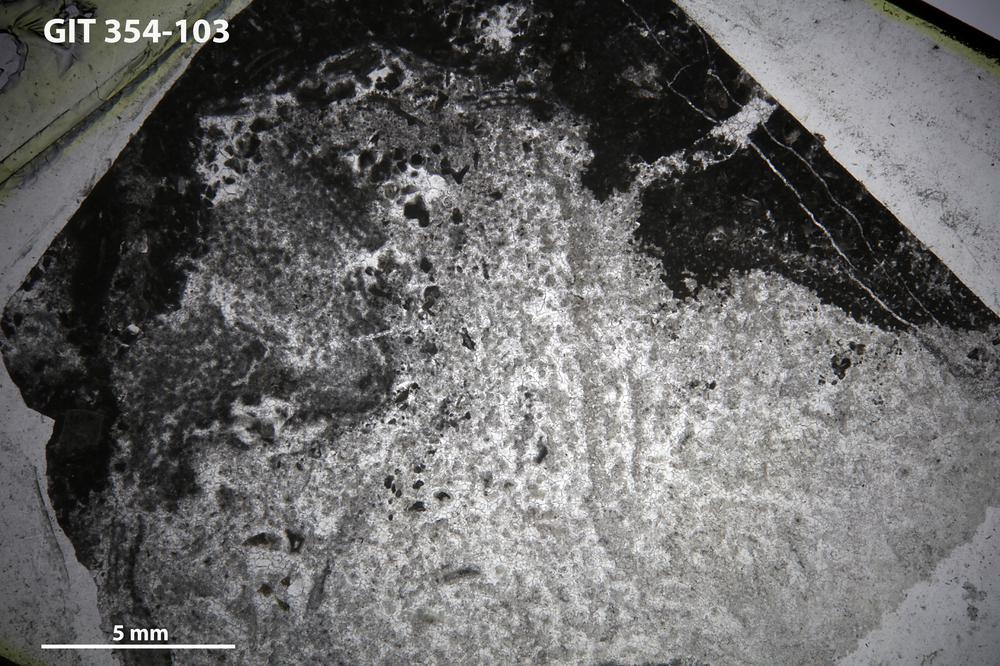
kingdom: Animalia
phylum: Porifera
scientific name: Porifera
